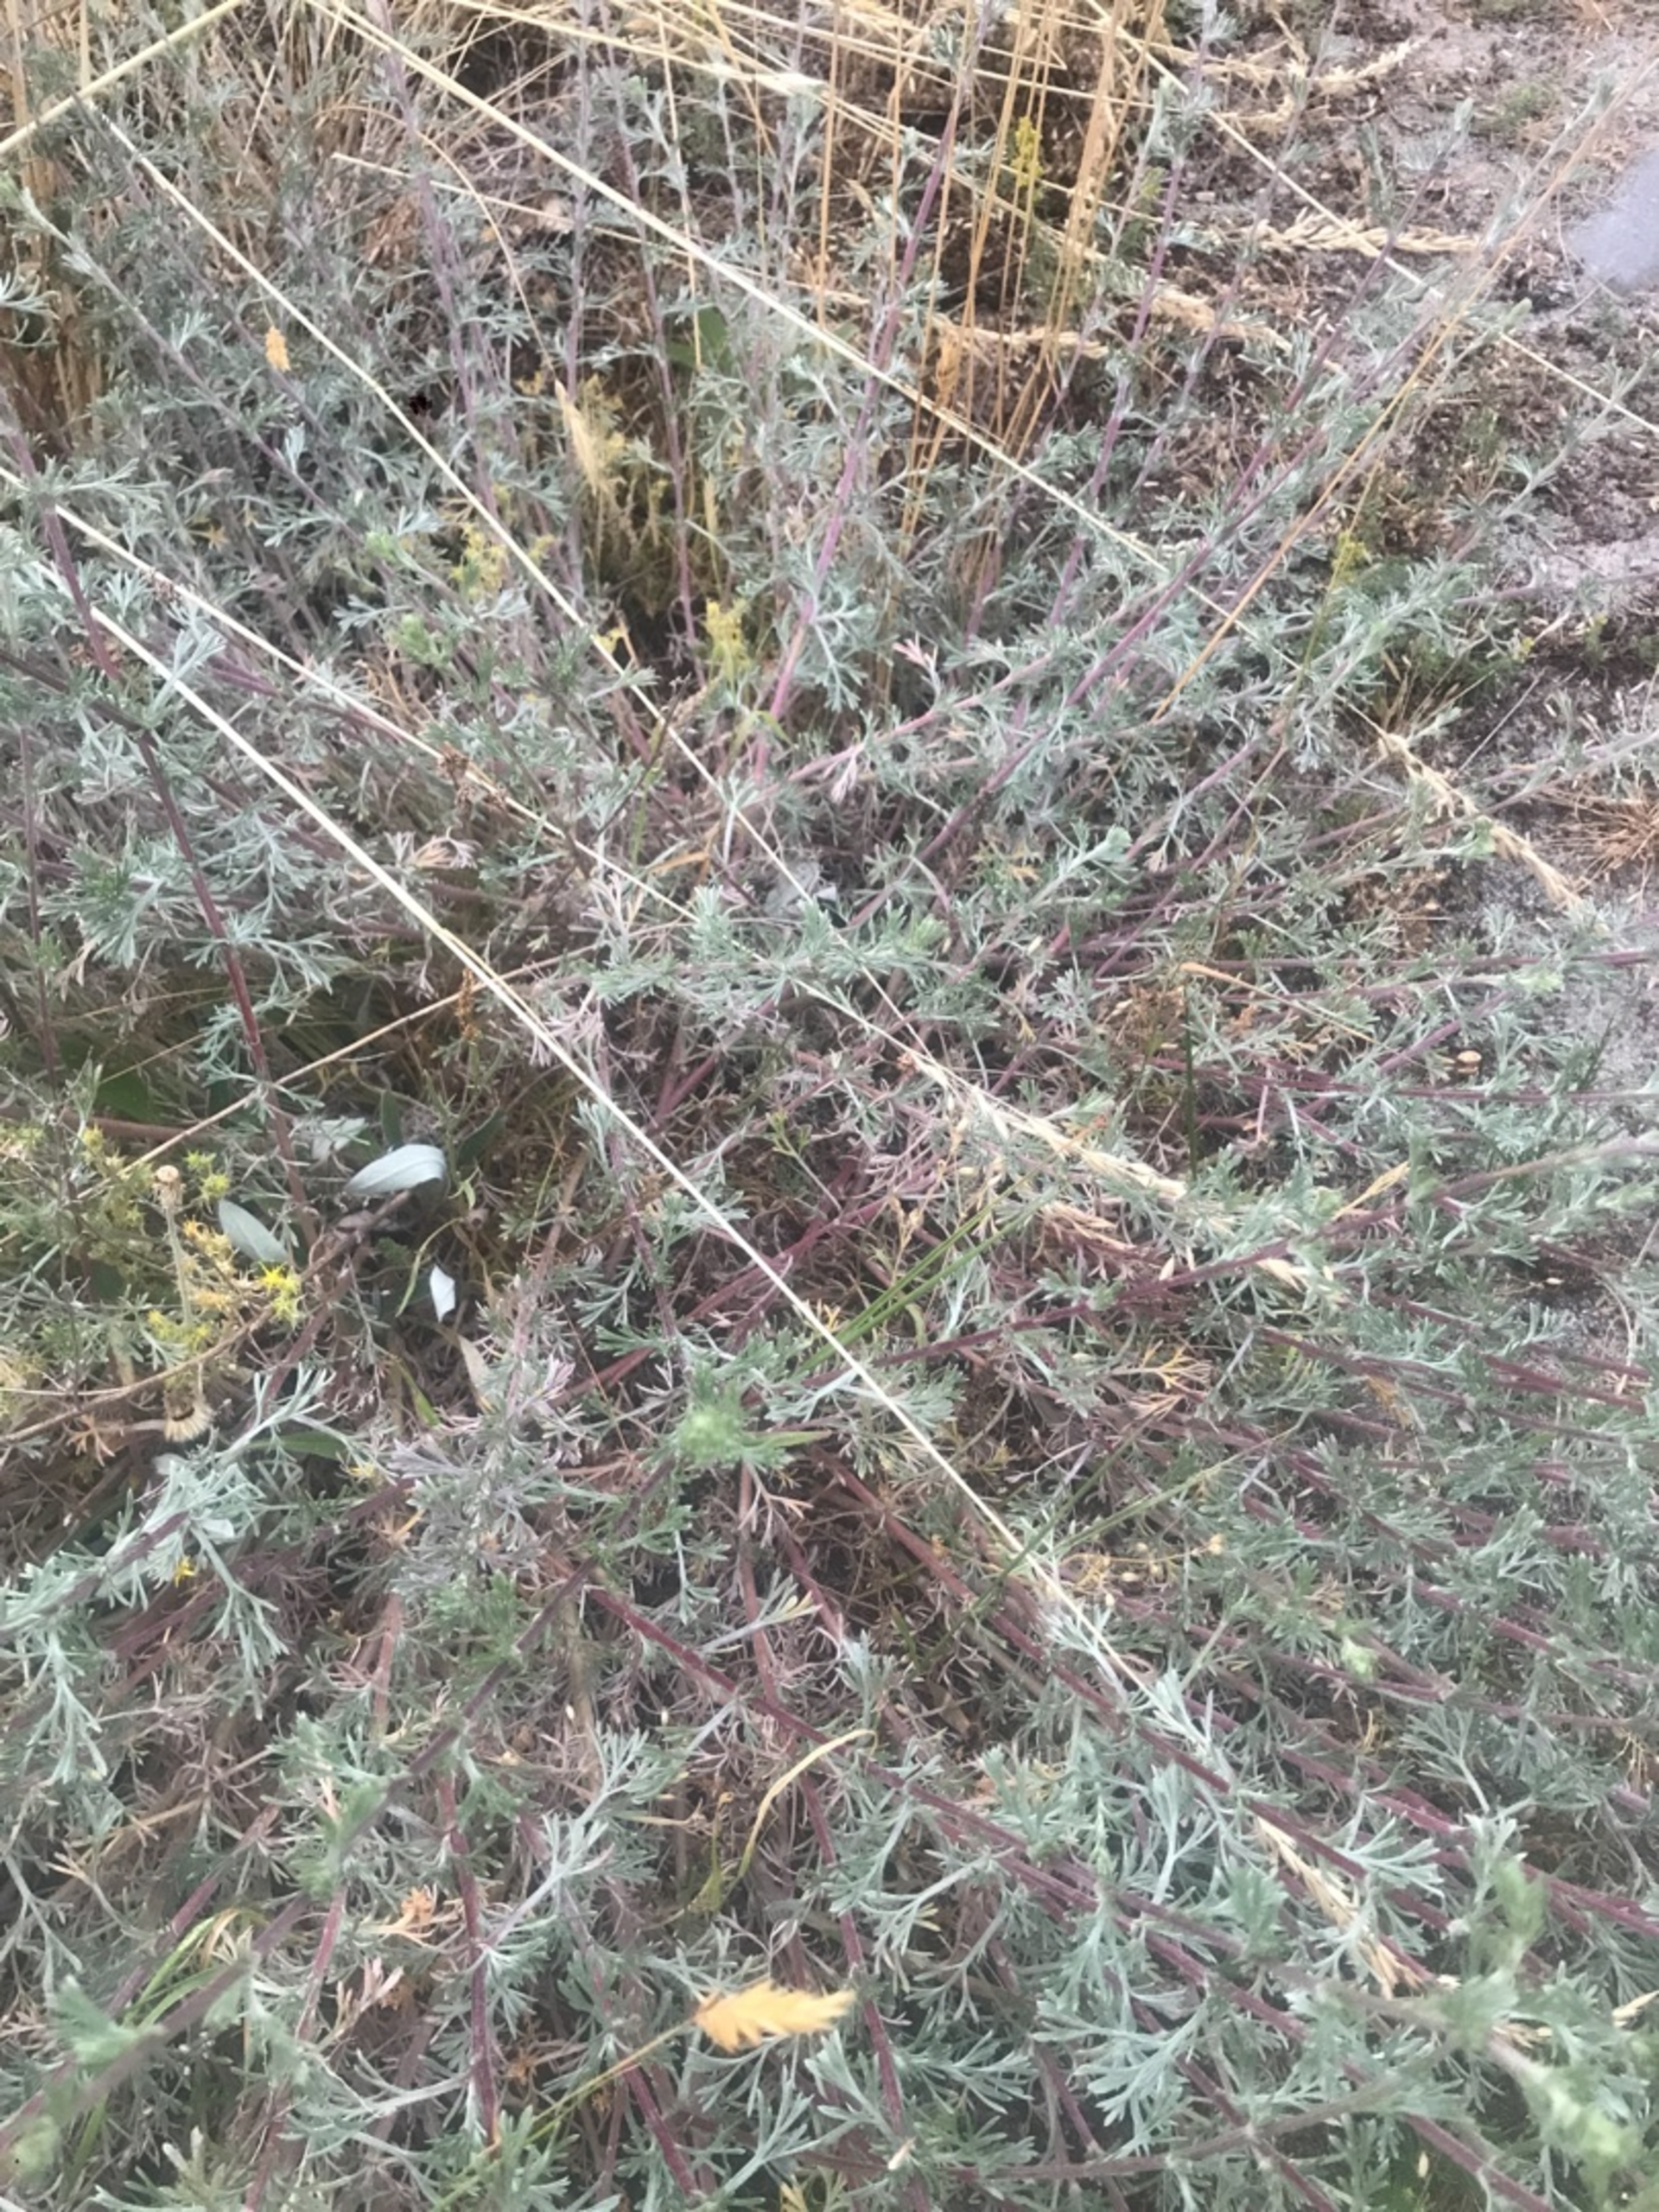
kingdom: Plantae
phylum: Tracheophyta
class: Magnoliopsida
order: Asterales
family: Asteraceae
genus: Artemisia
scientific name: Artemisia campestris
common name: Mark-bynke
